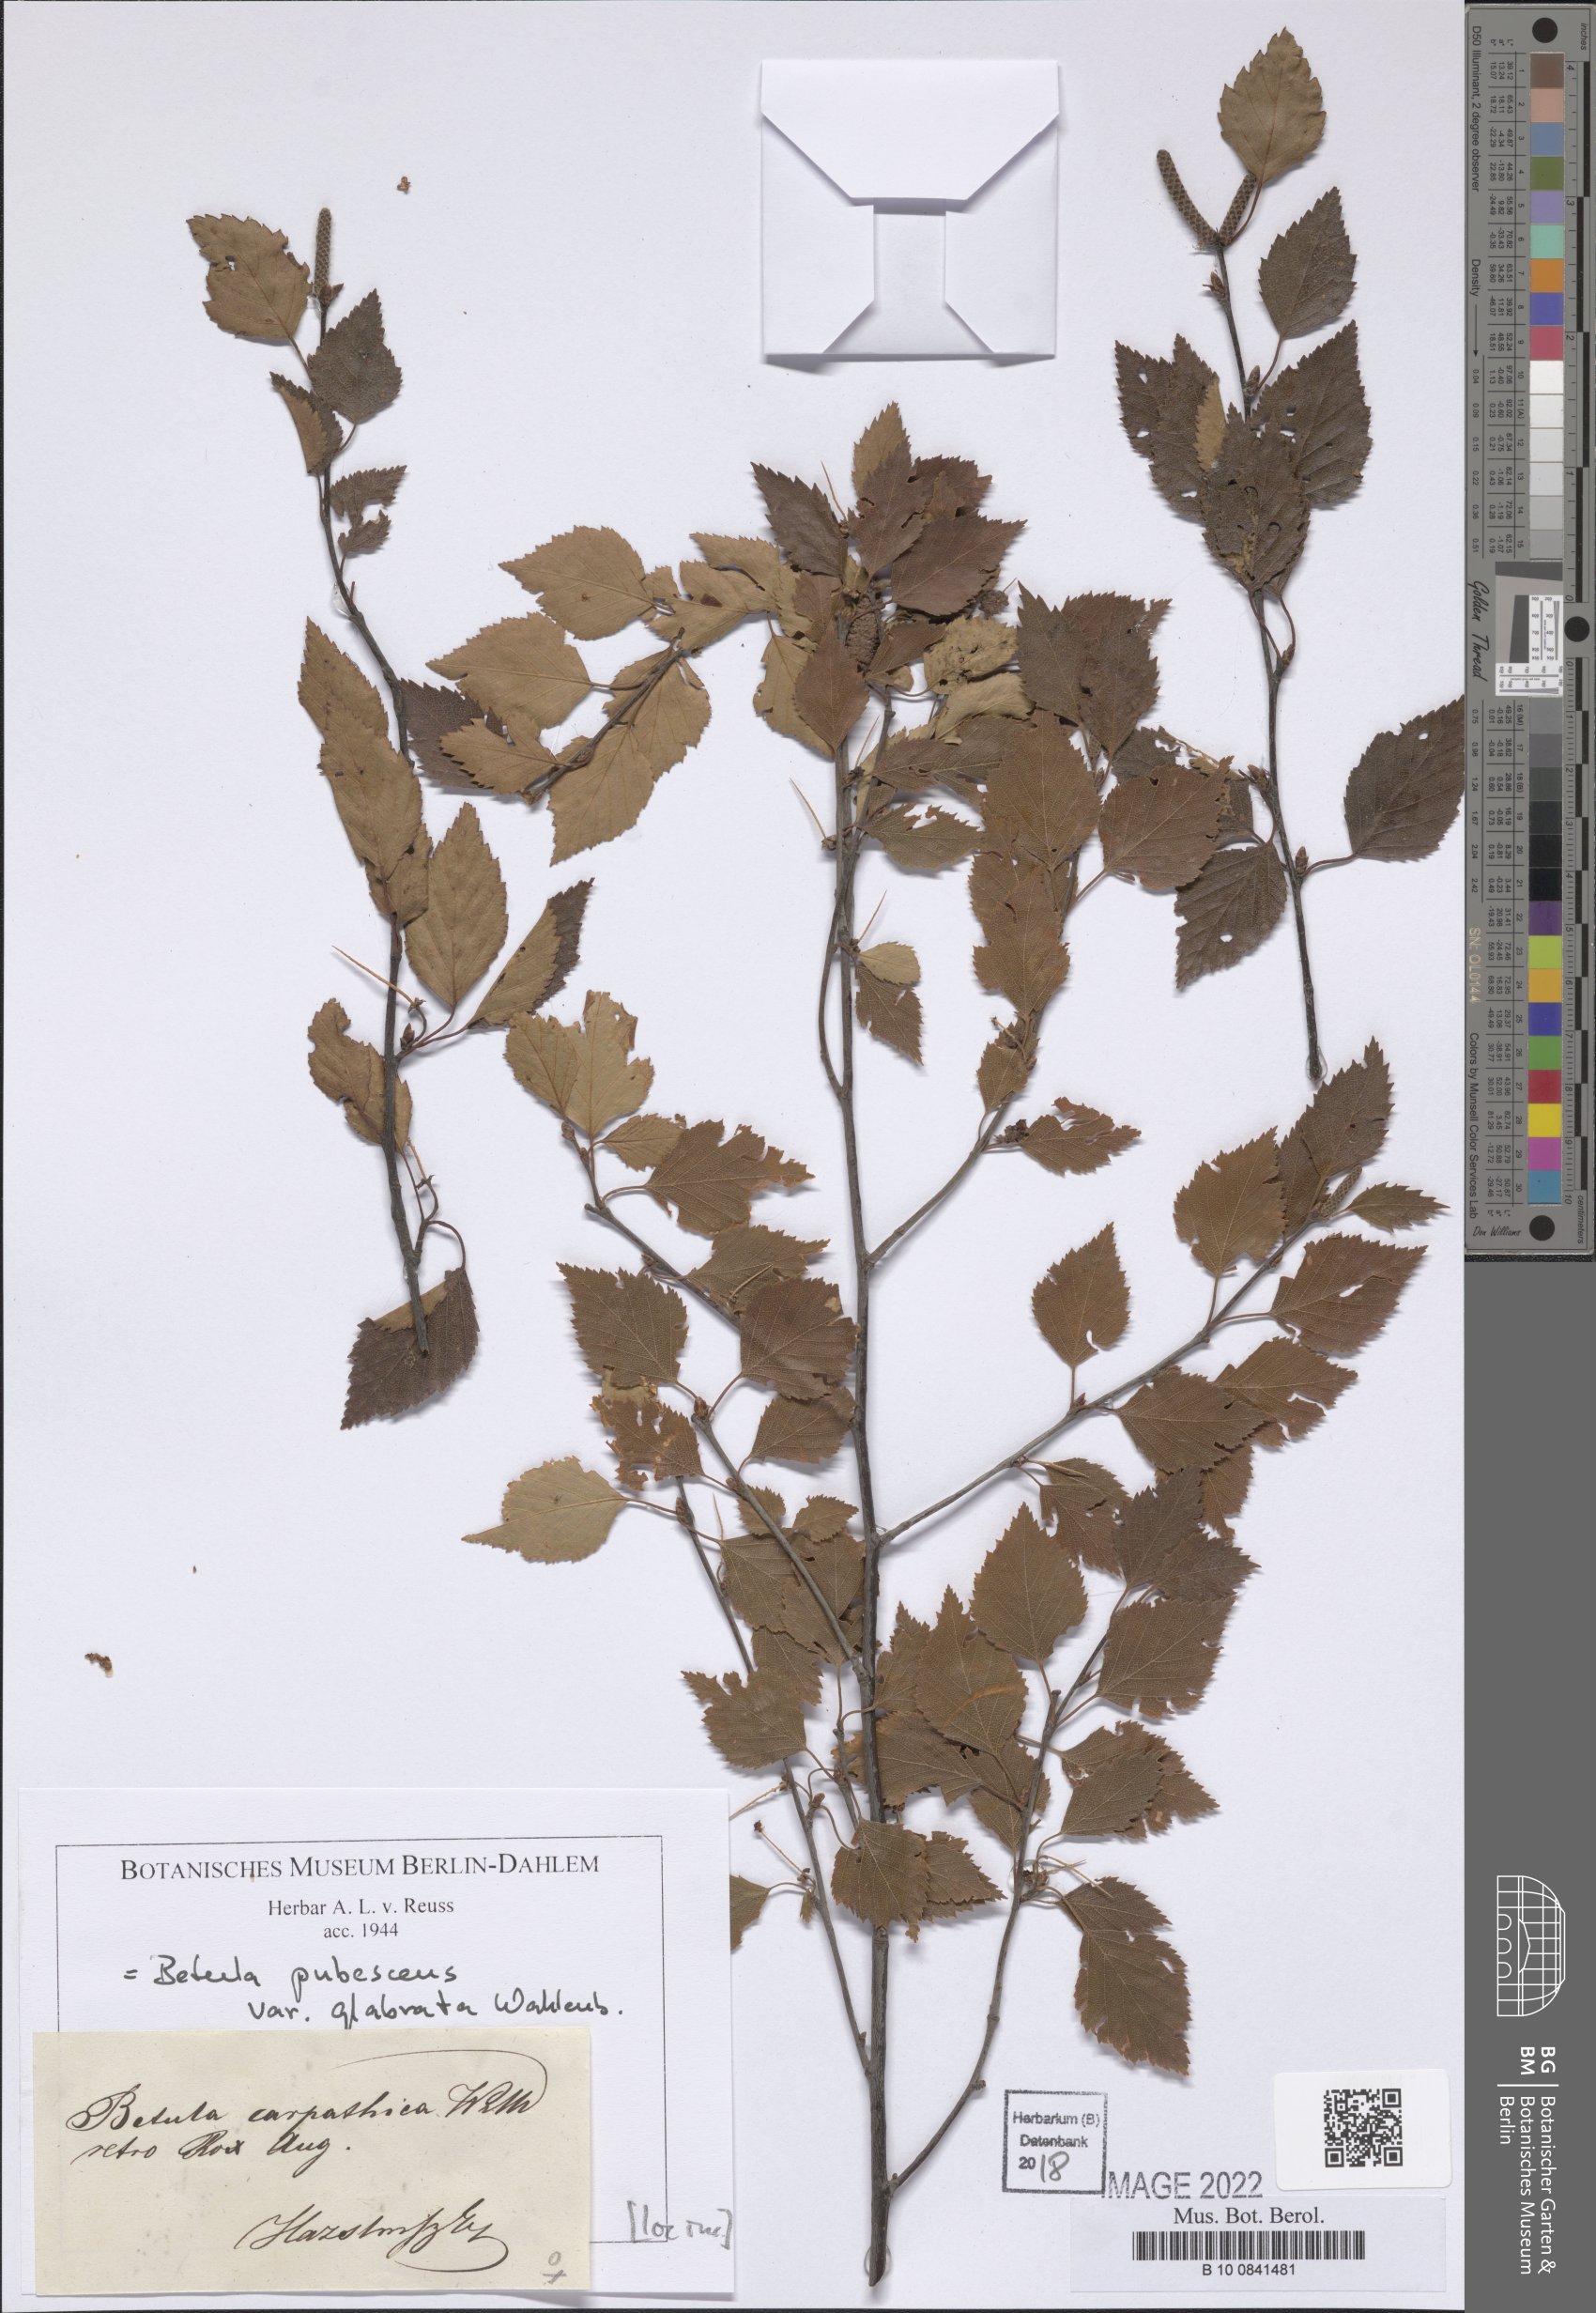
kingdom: Plantae
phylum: Tracheophyta
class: Magnoliopsida
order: Fagales
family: Betulaceae
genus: Betula
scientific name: Betula pubescens
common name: Downy birch
